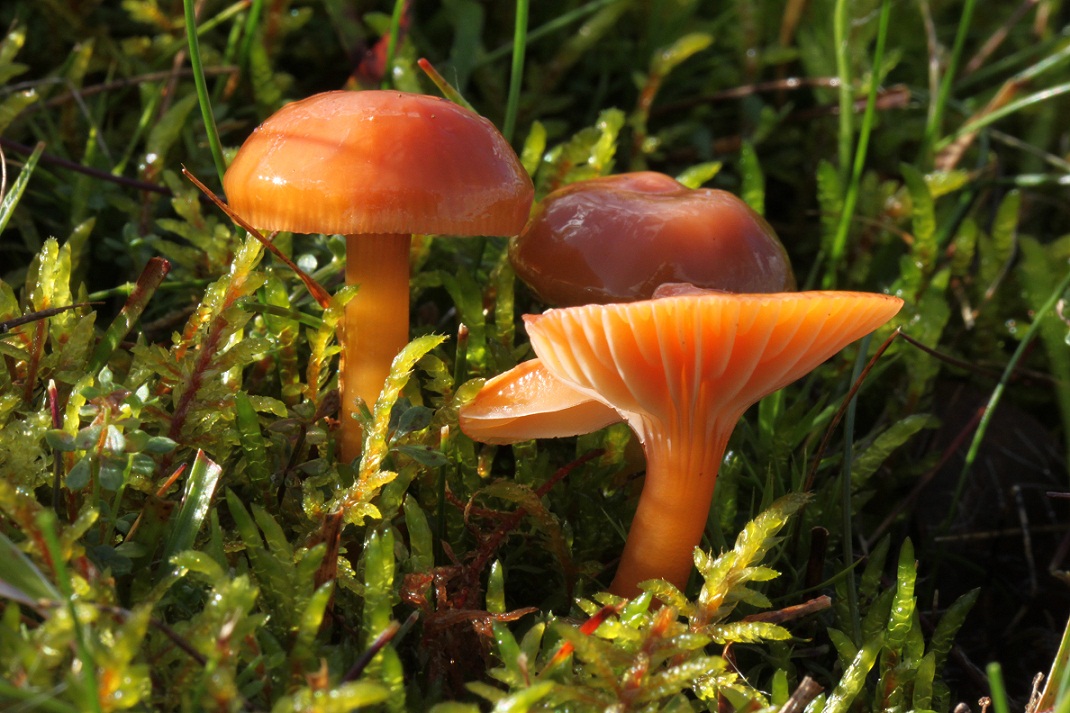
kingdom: Fungi
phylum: Basidiomycota
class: Agaricomycetes
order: Agaricales
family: Hygrophoraceae
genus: Gliophorus
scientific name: Gliophorus laetus
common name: brusk-vokshat
